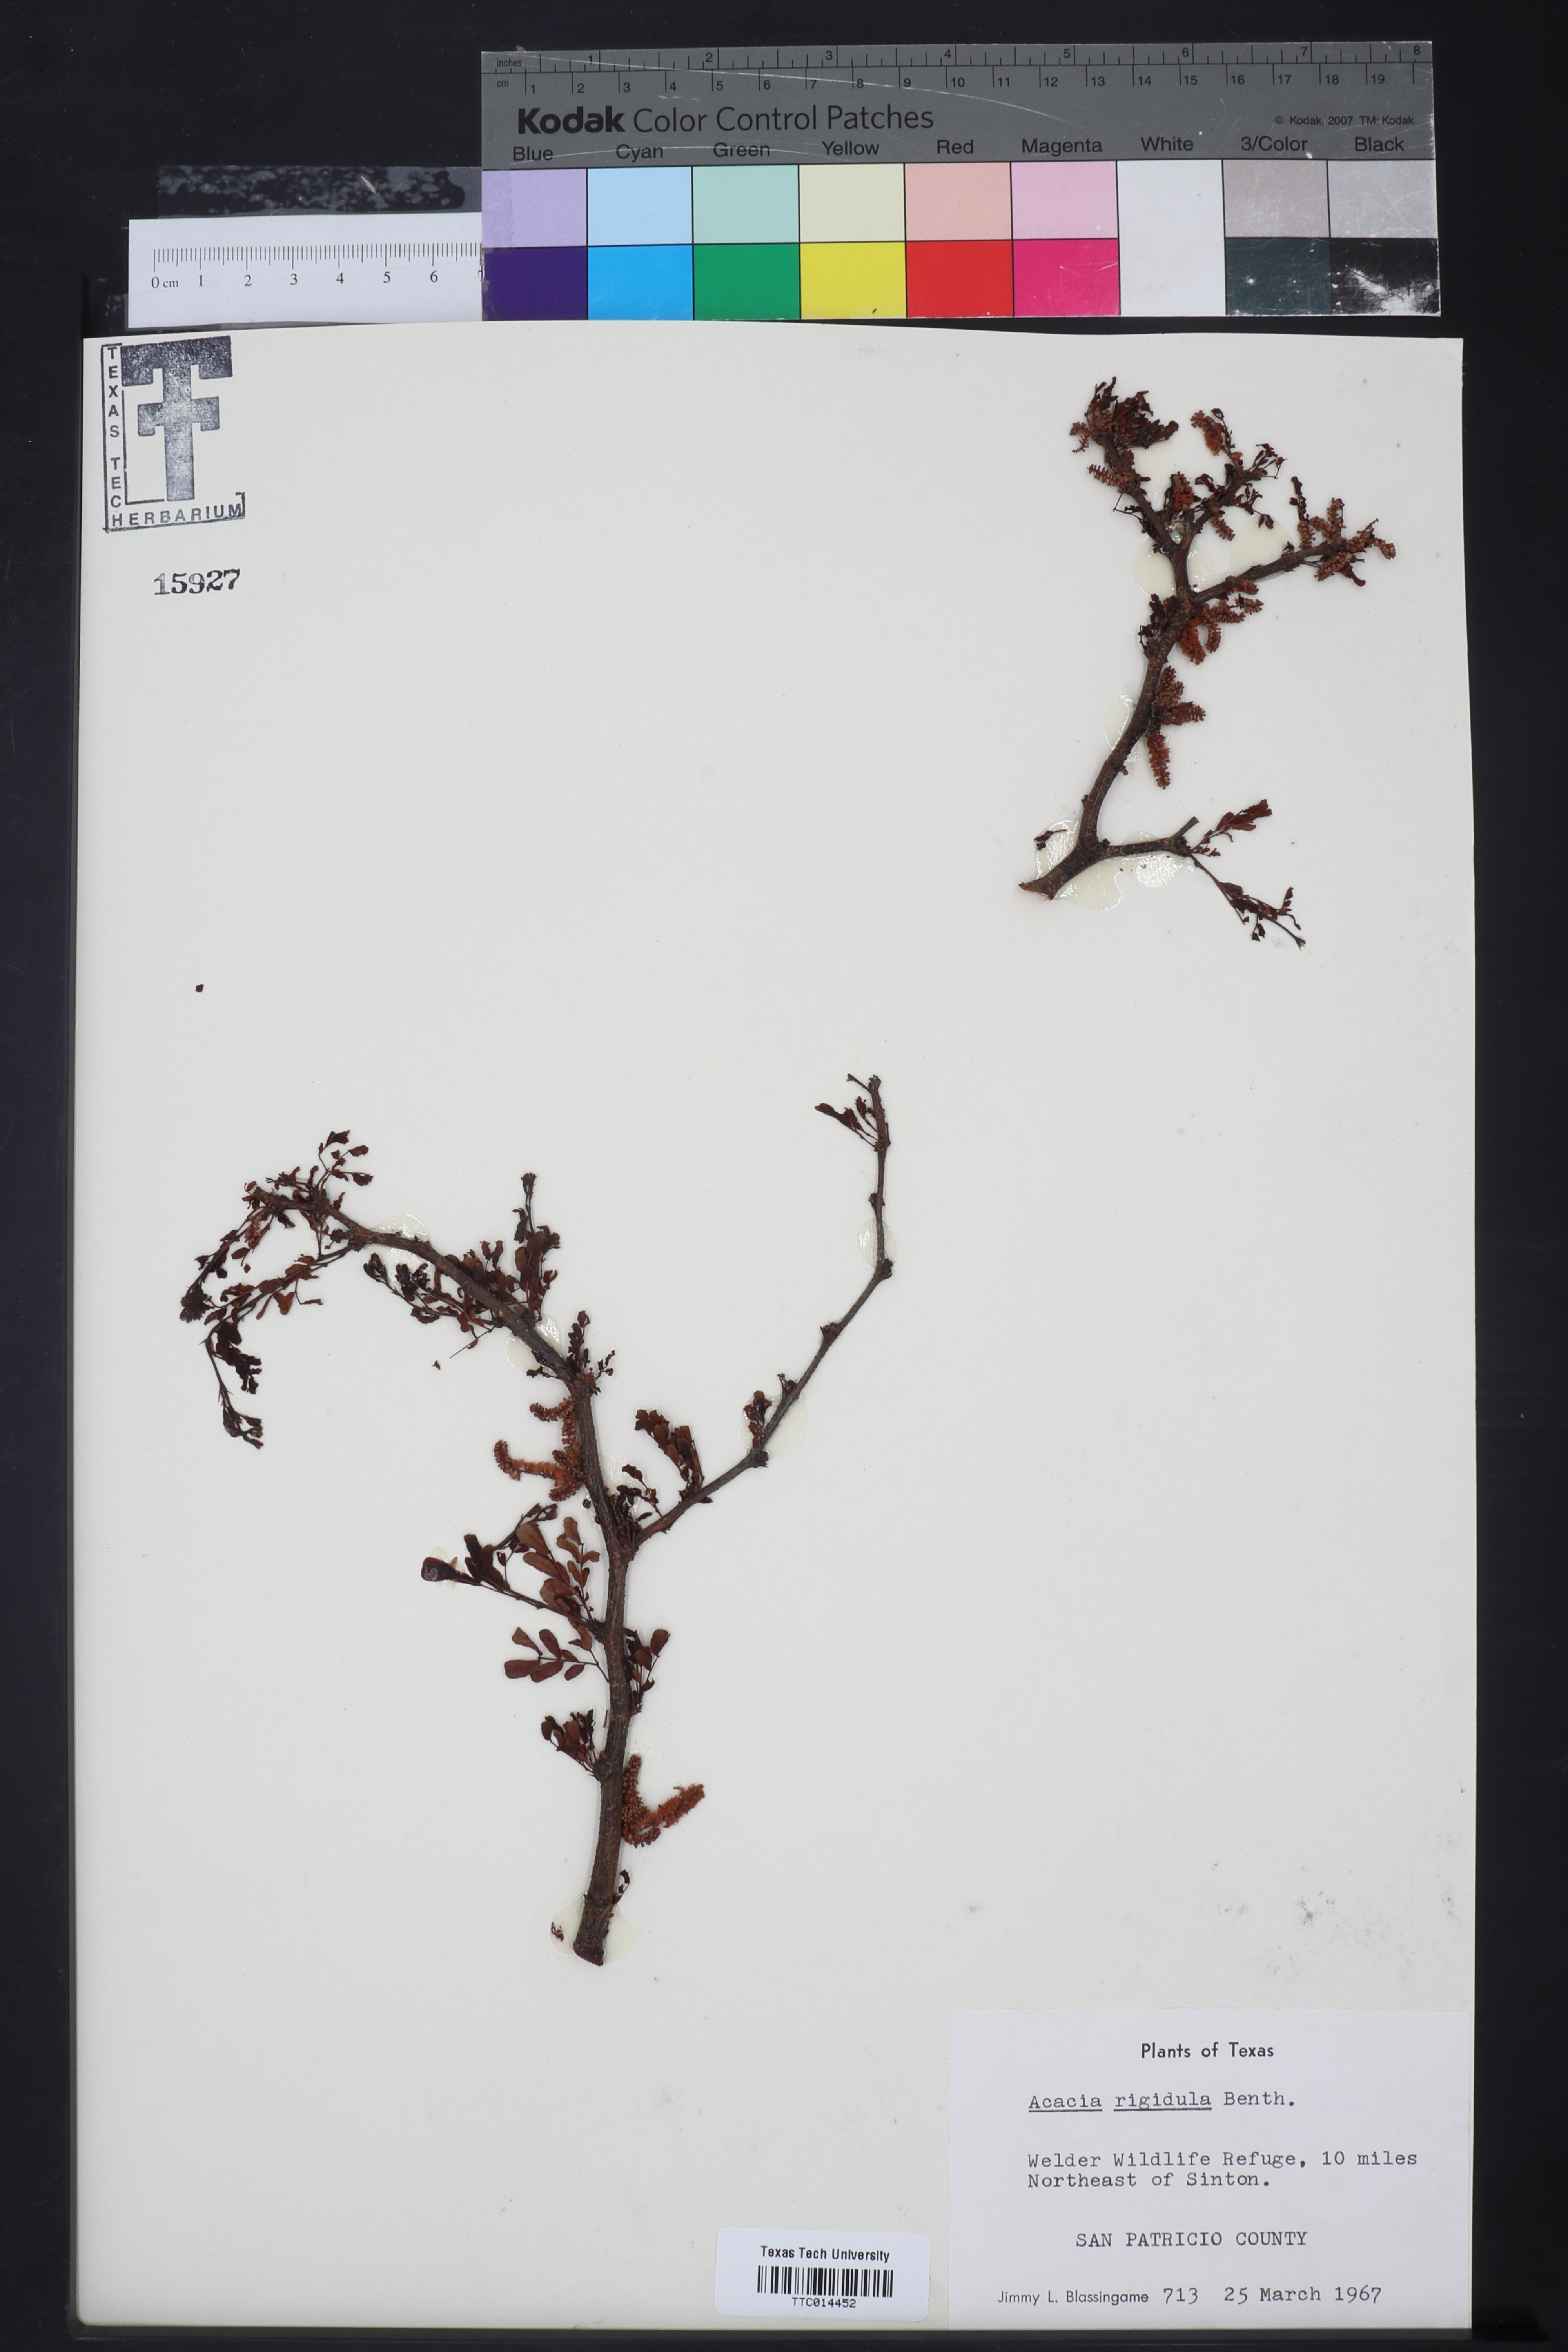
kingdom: Plantae
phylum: Tracheophyta
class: Magnoliopsida
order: Fabales
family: Fabaceae
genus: Vachellia
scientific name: Vachellia rigidula
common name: Blackbrush
